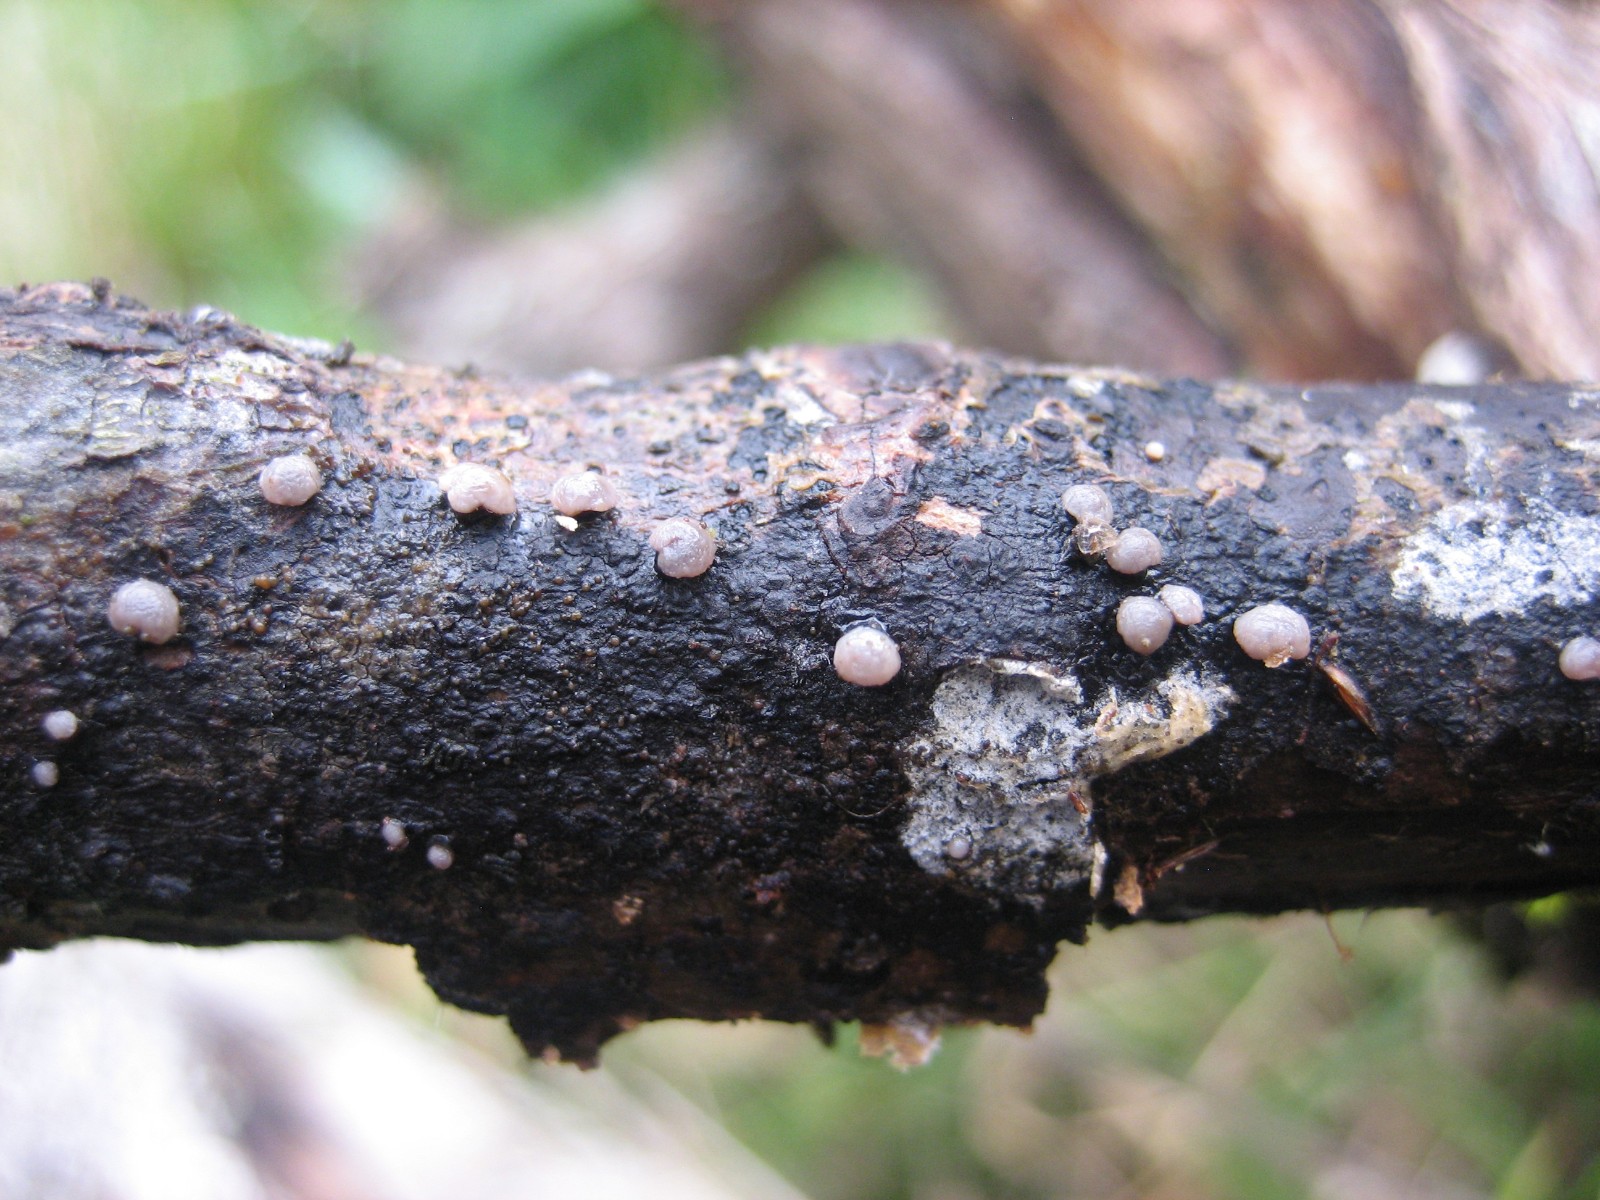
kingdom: Fungi
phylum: Ascomycota
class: Leotiomycetes
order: Helotiales
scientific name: Helotiales
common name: stilkskiveordenen
